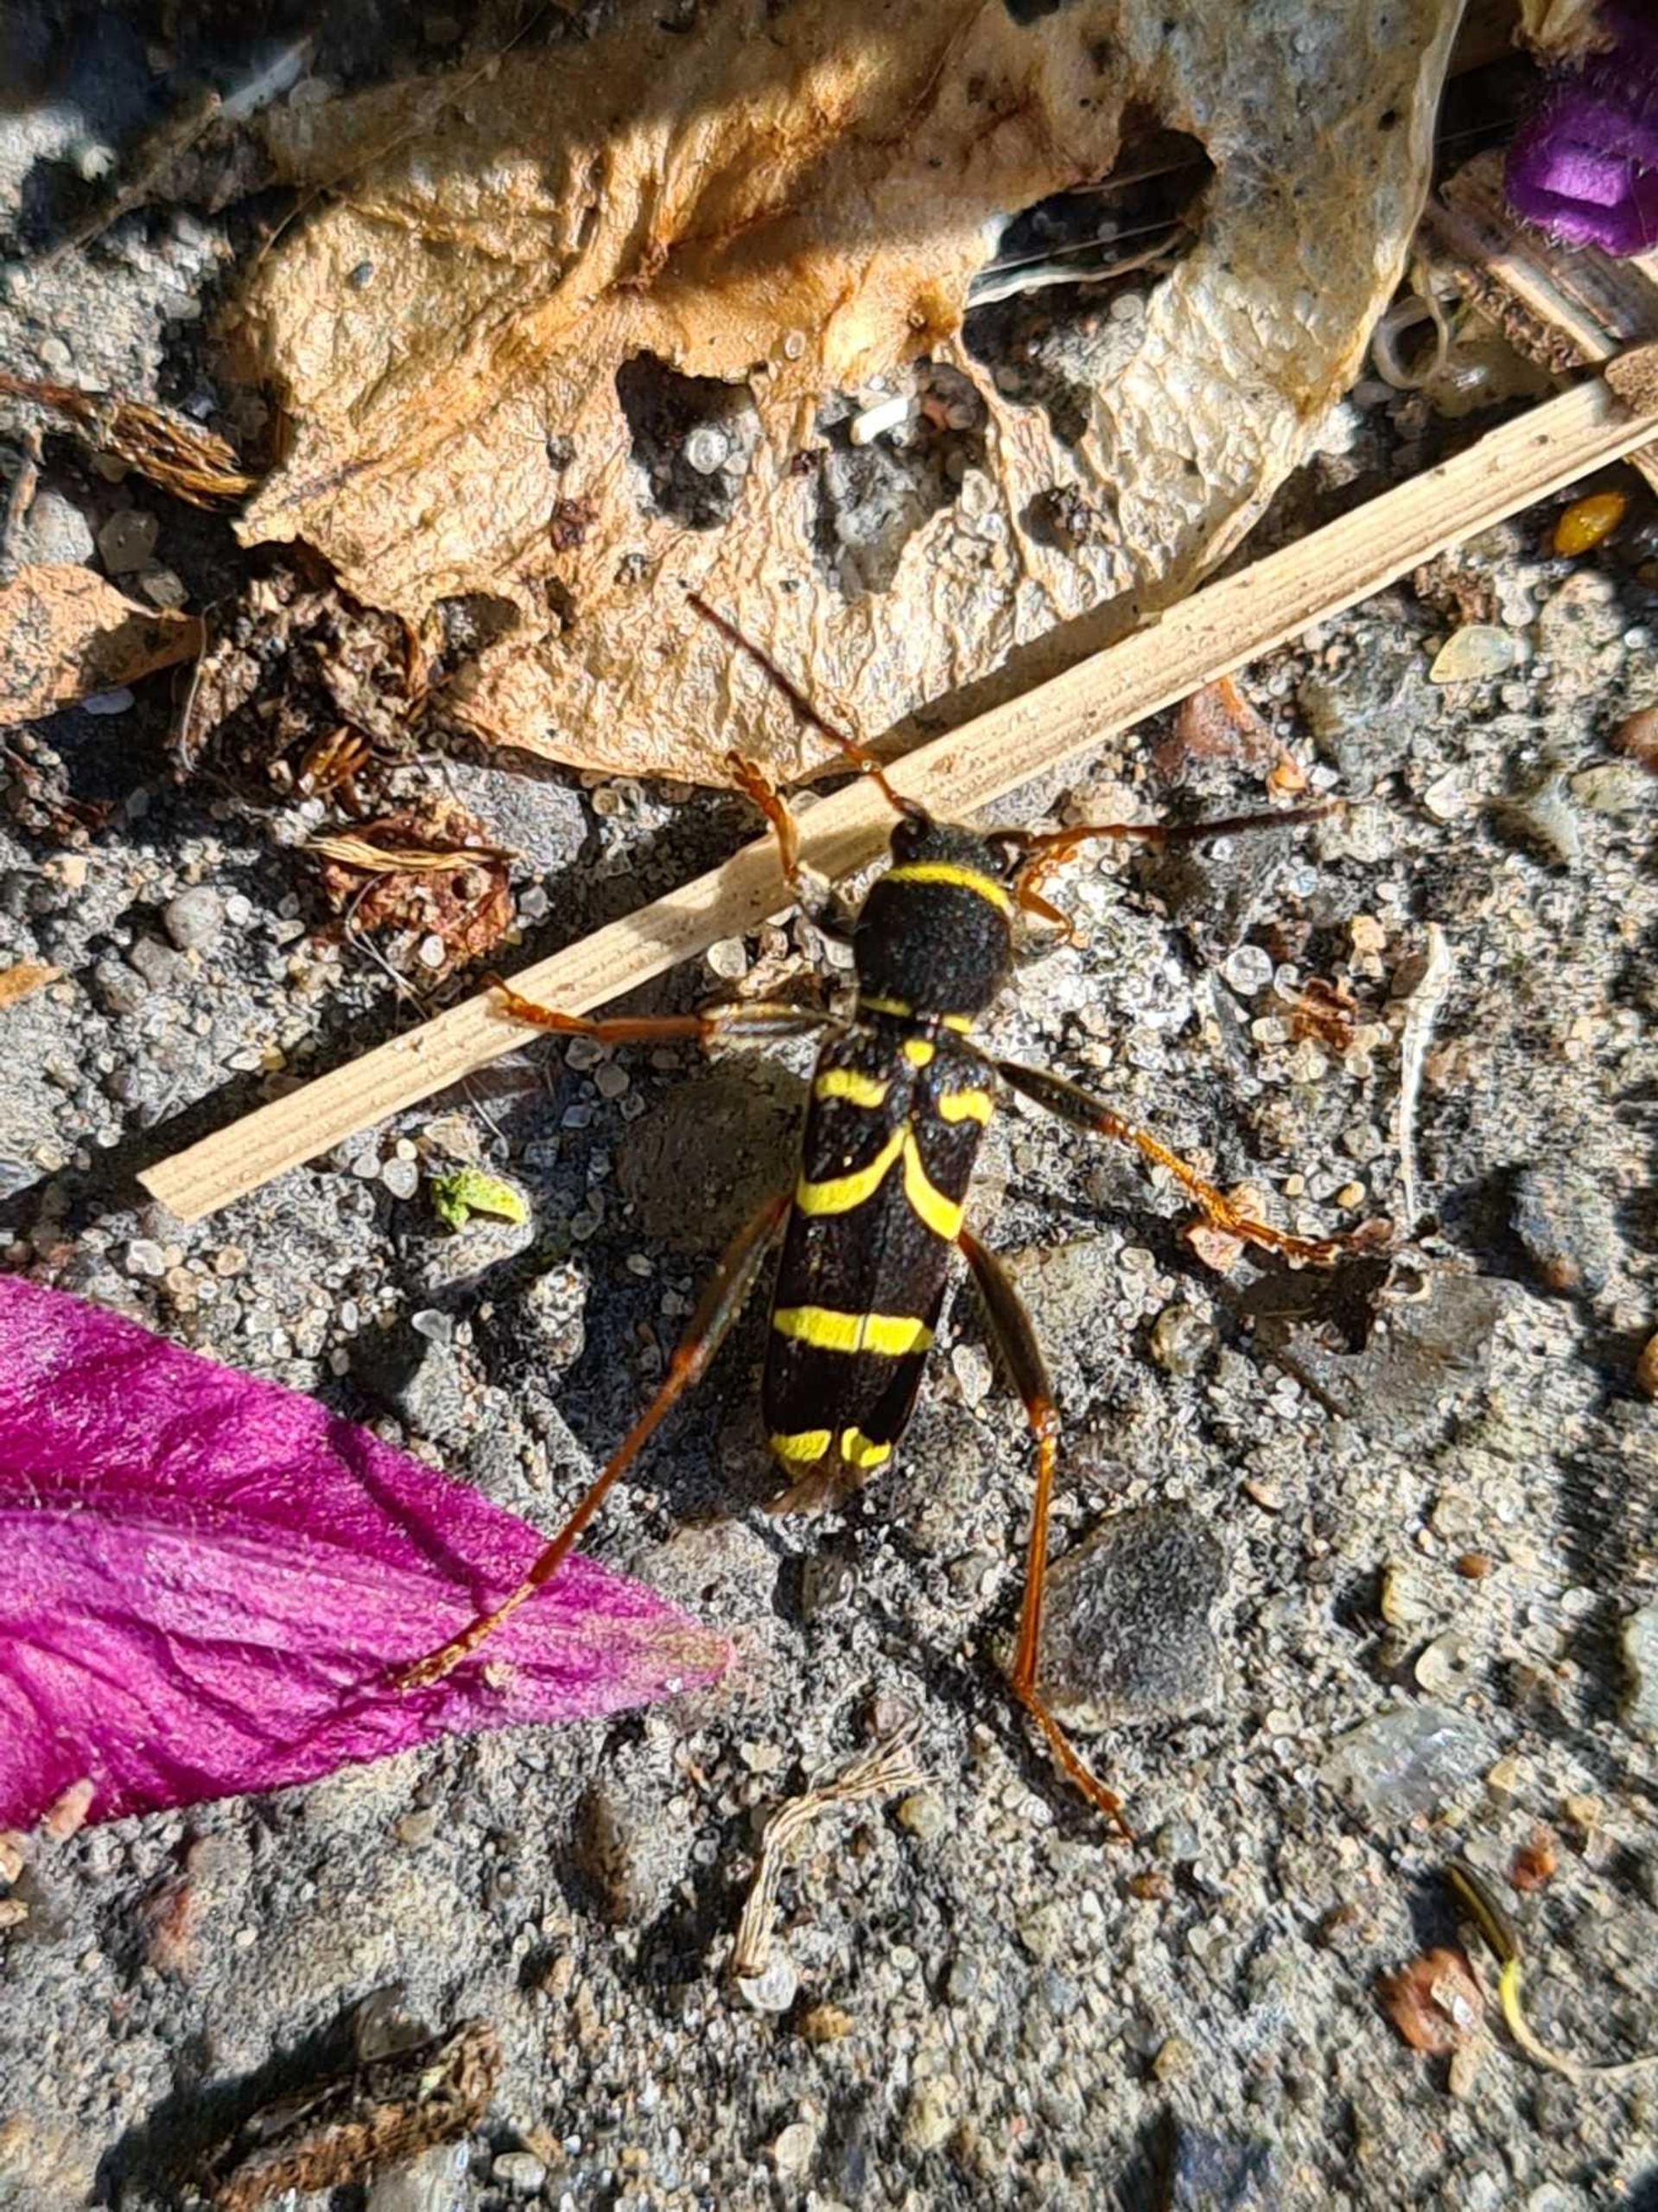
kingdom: Animalia
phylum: Arthropoda
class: Insecta
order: Coleoptera
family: Cerambycidae
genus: Clytus
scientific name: Clytus arietis
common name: Lille hvepsebuk
